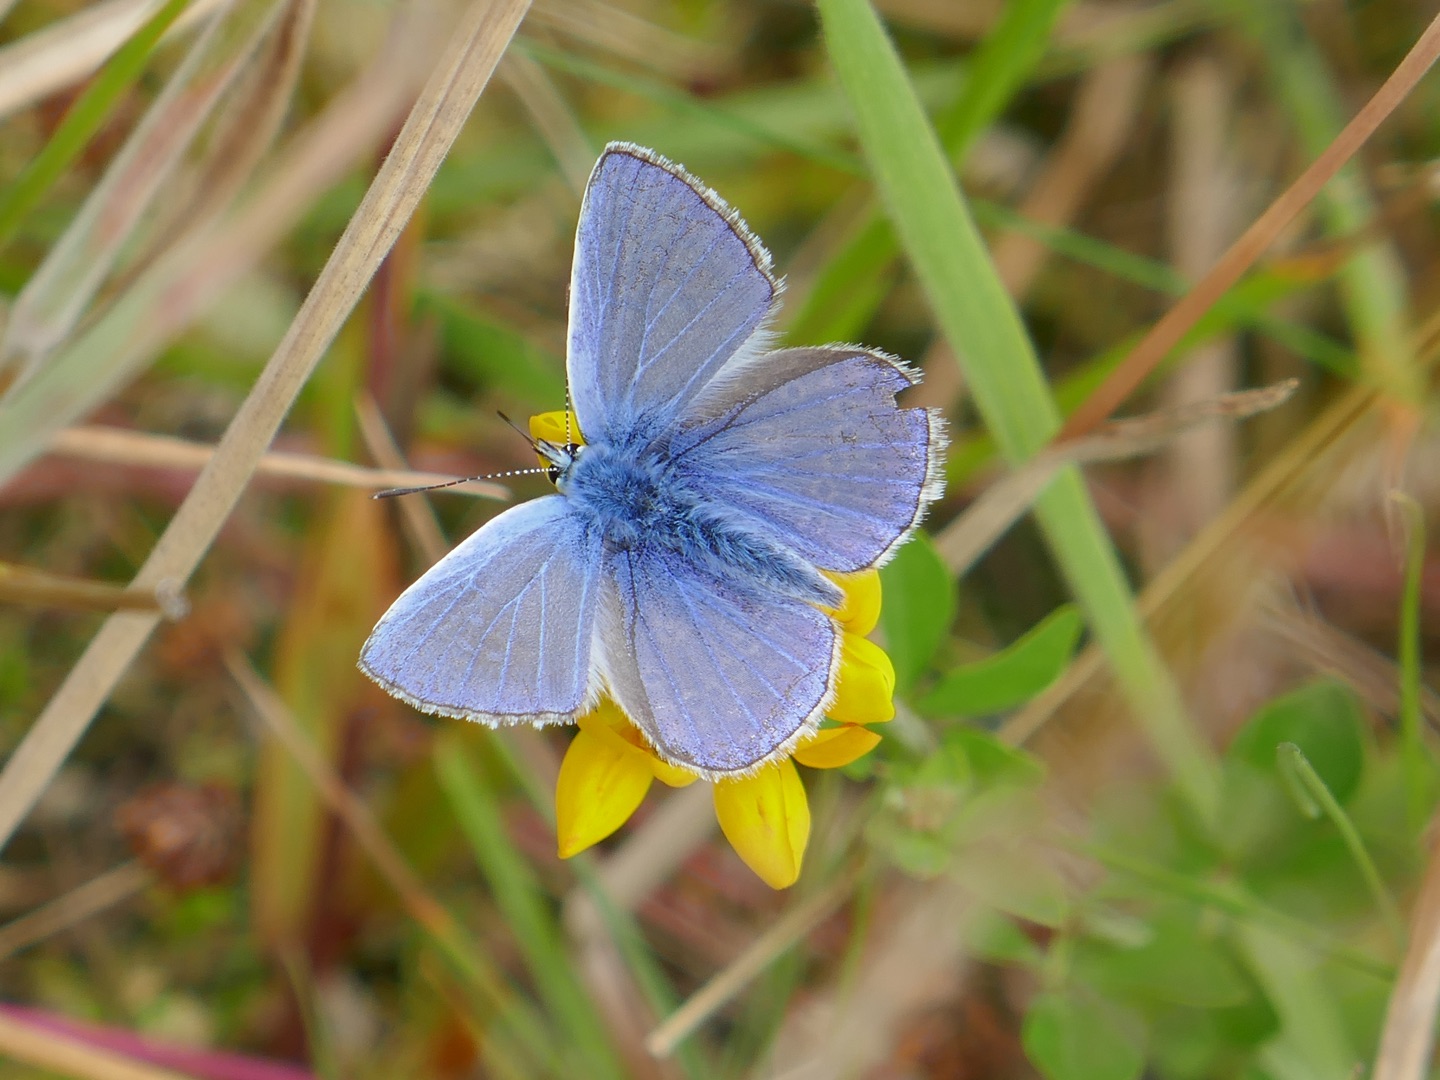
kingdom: Animalia
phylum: Arthropoda
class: Insecta
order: Lepidoptera
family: Lycaenidae
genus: Polyommatus
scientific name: Polyommatus icarus
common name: Almindelig blåfugl
